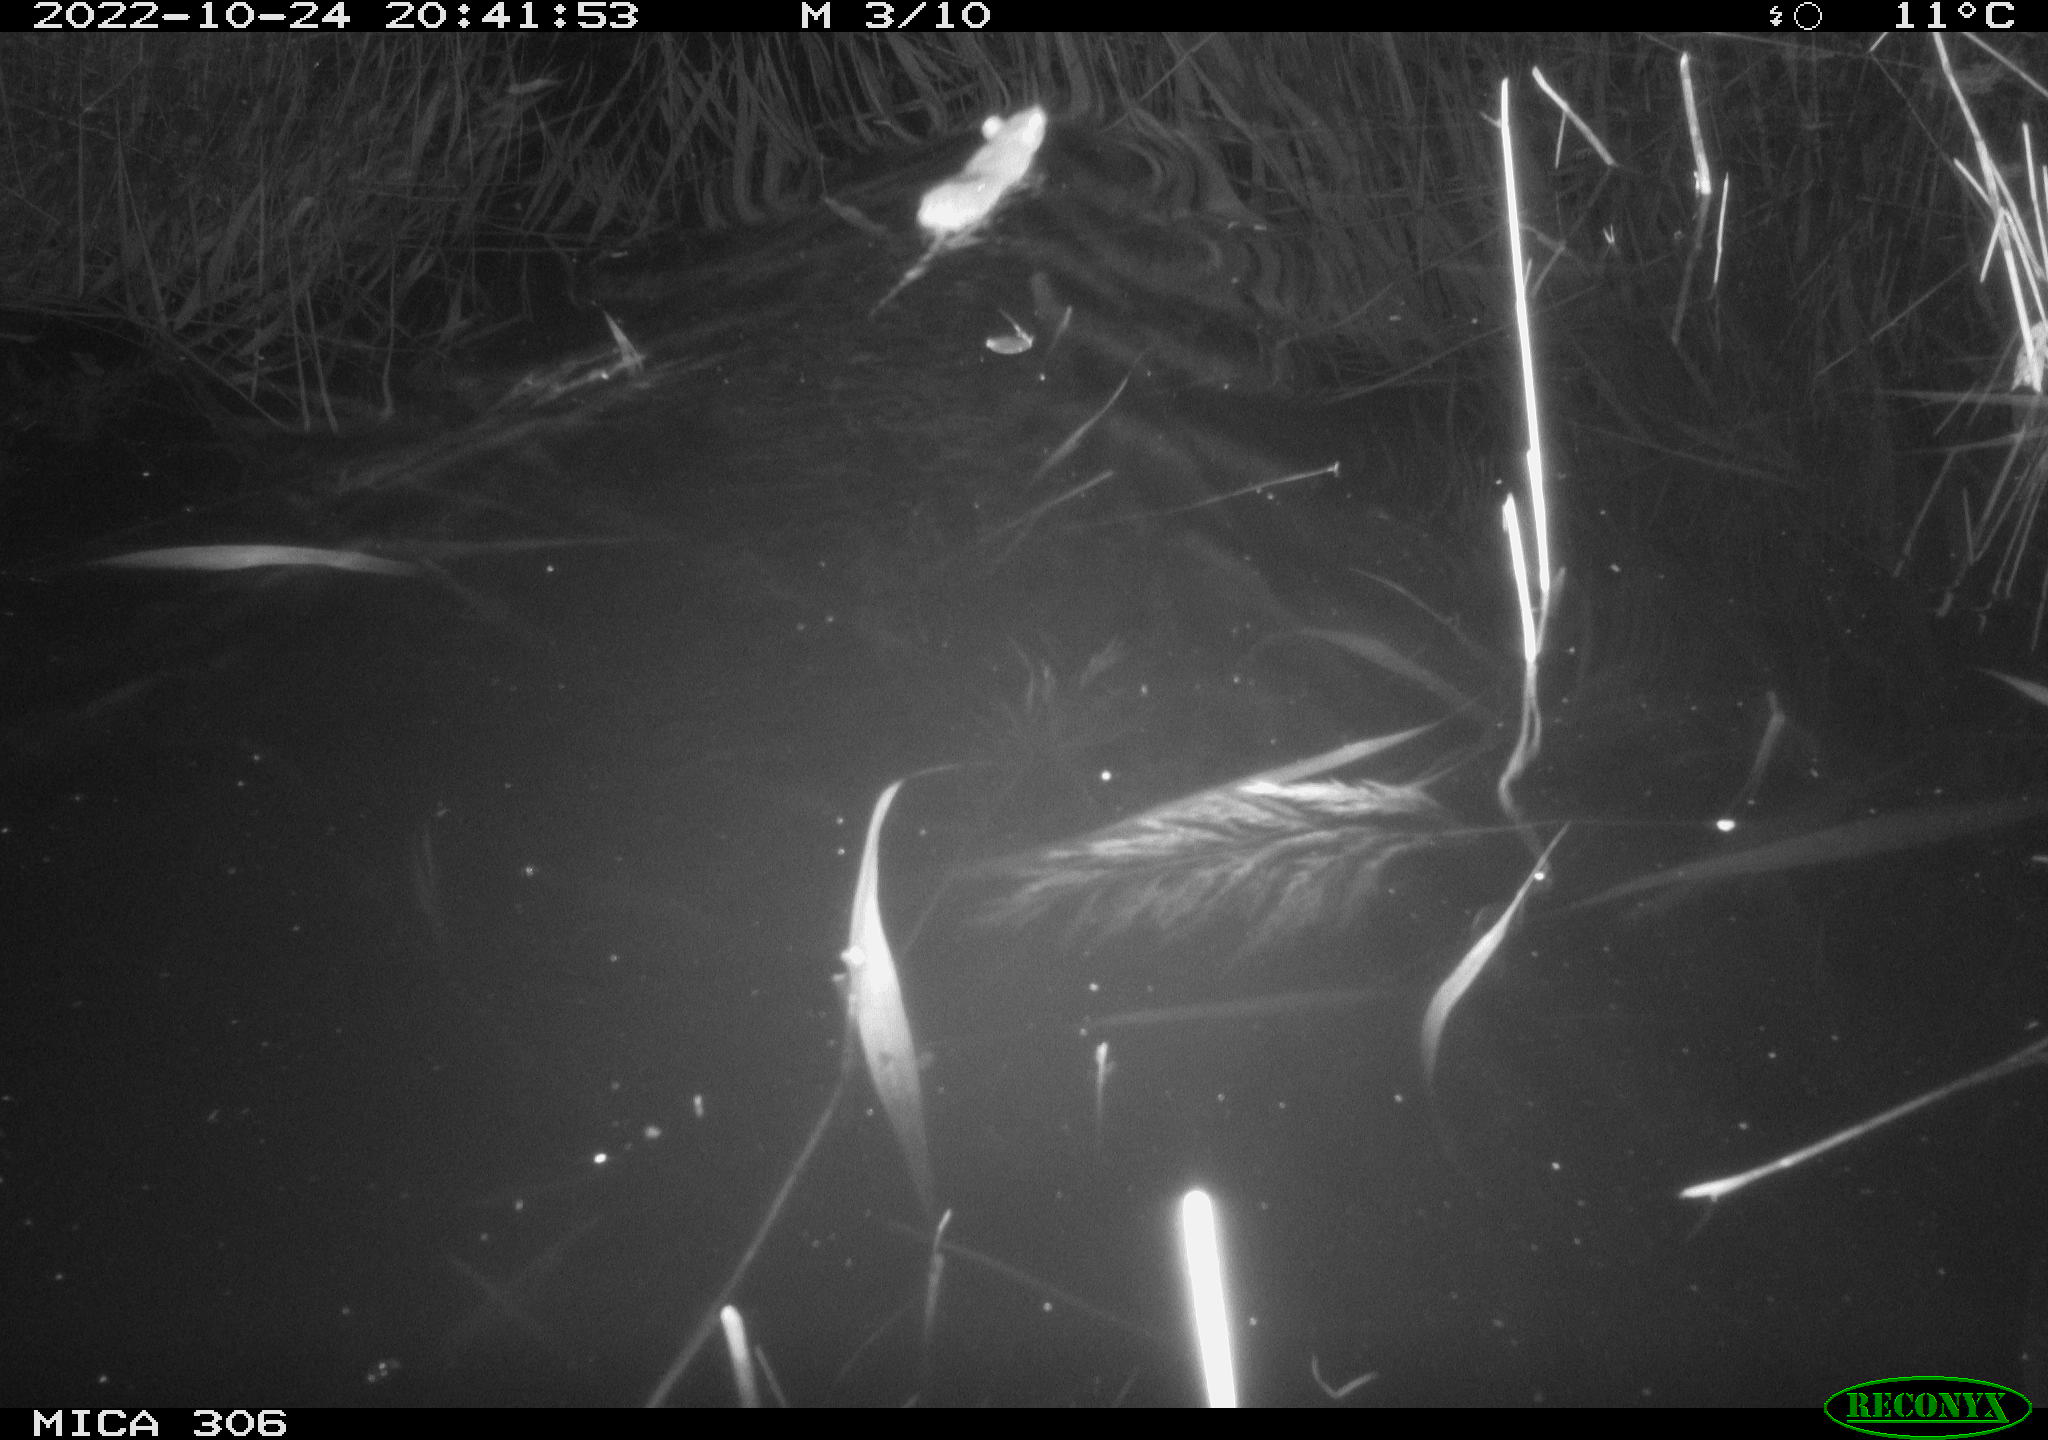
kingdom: Animalia
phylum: Chordata
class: Mammalia
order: Rodentia
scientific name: Rodentia
